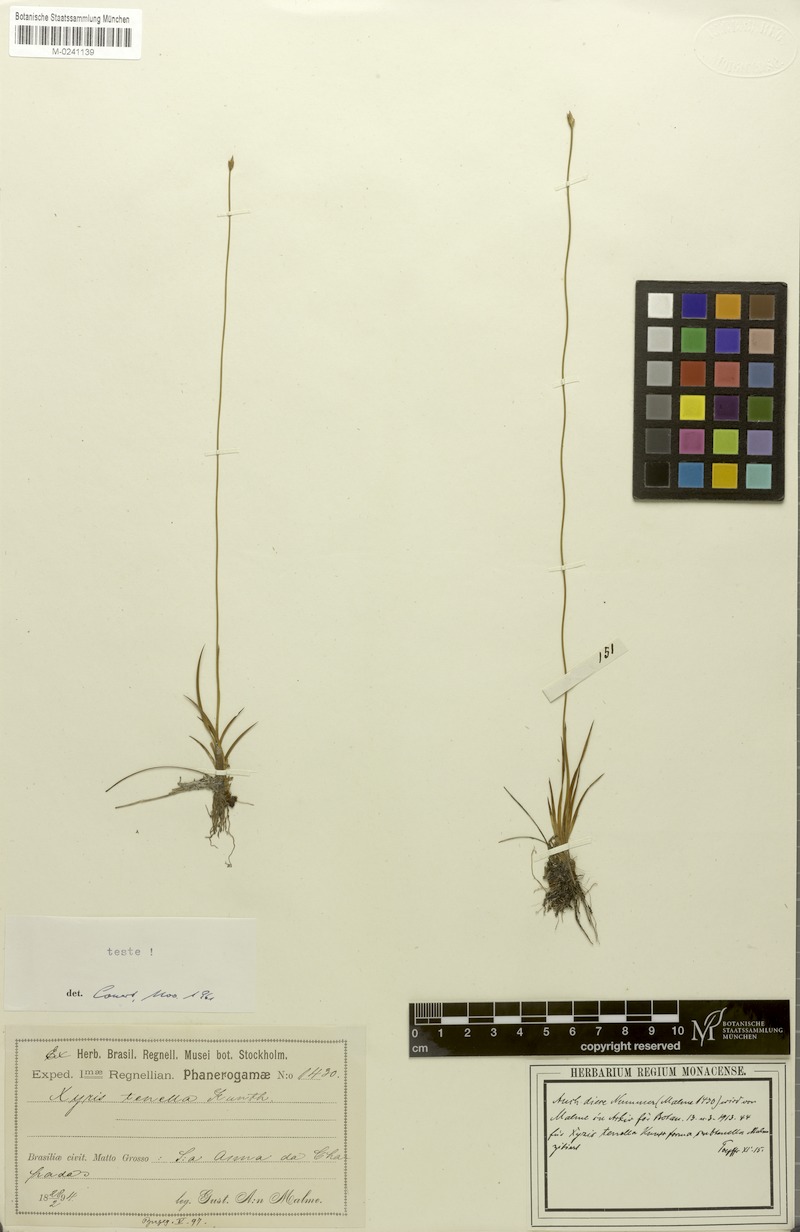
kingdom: Plantae
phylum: Tracheophyta
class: Liliopsida
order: Poales
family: Xyridaceae
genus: Xyris
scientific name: Xyris tenella
